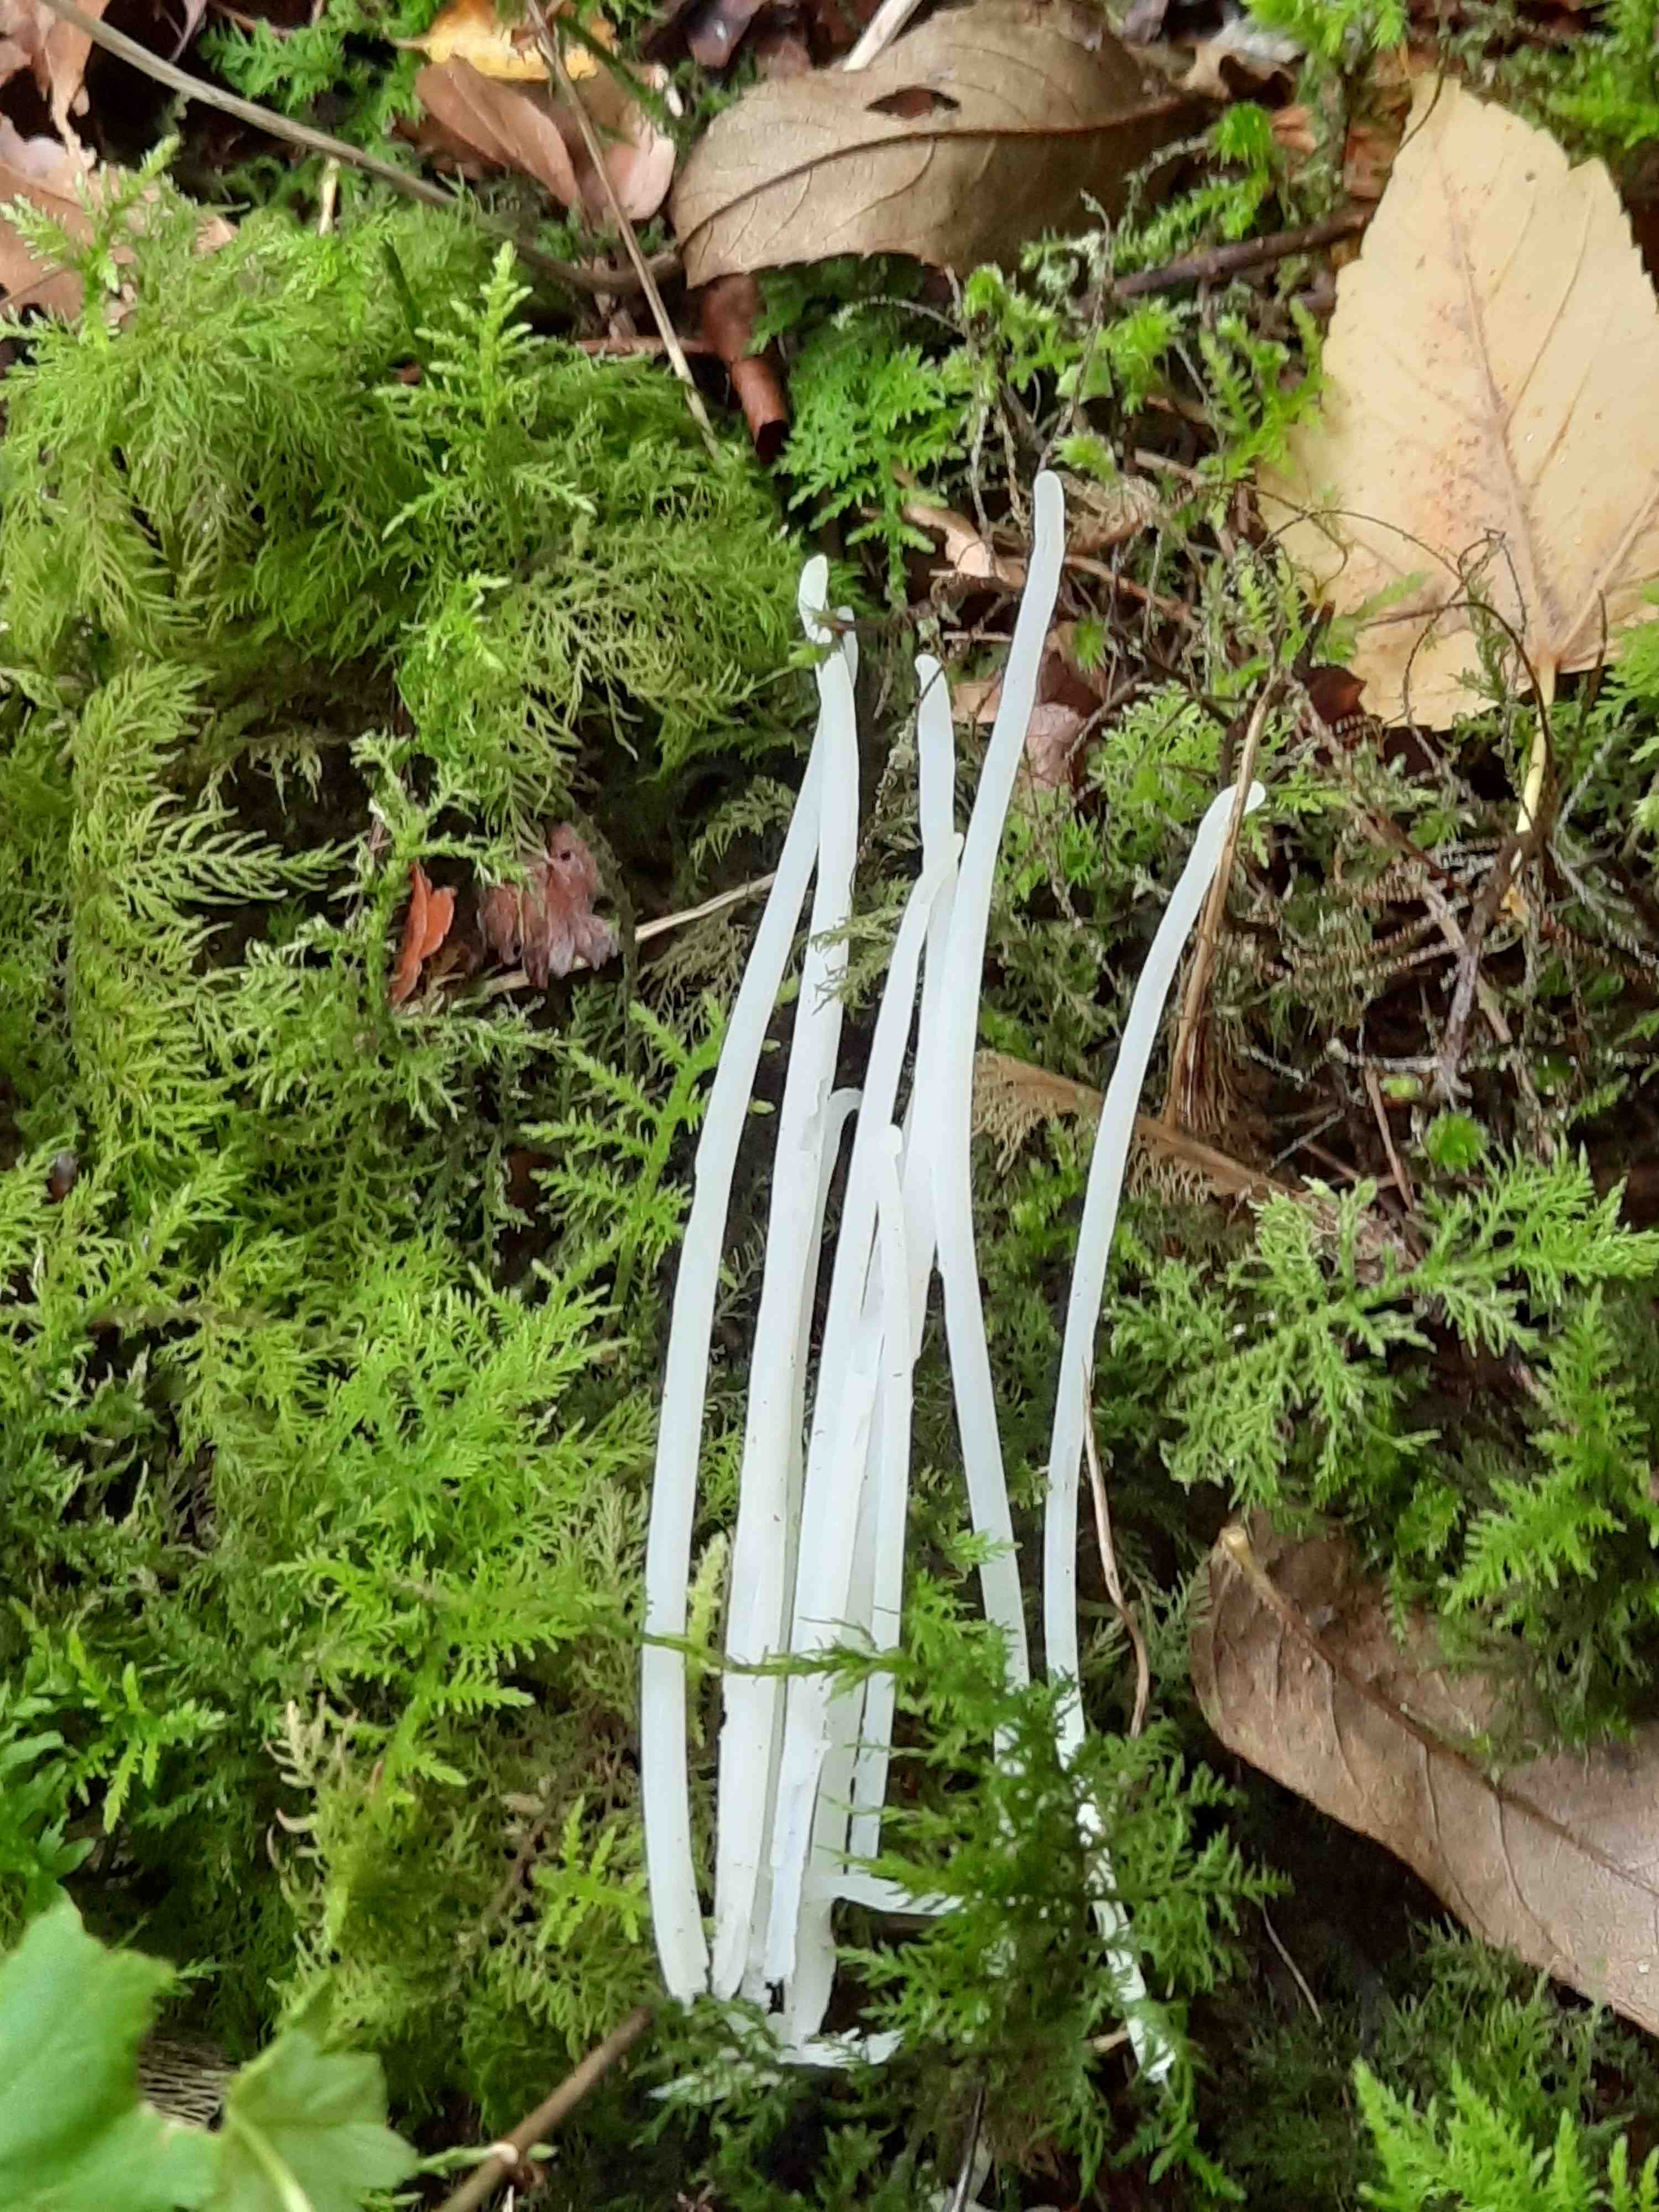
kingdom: Fungi
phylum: Basidiomycota
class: Agaricomycetes
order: Agaricales
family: Clavariaceae
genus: Clavaria
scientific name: Clavaria fragilis
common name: bugtet køllesvamp
